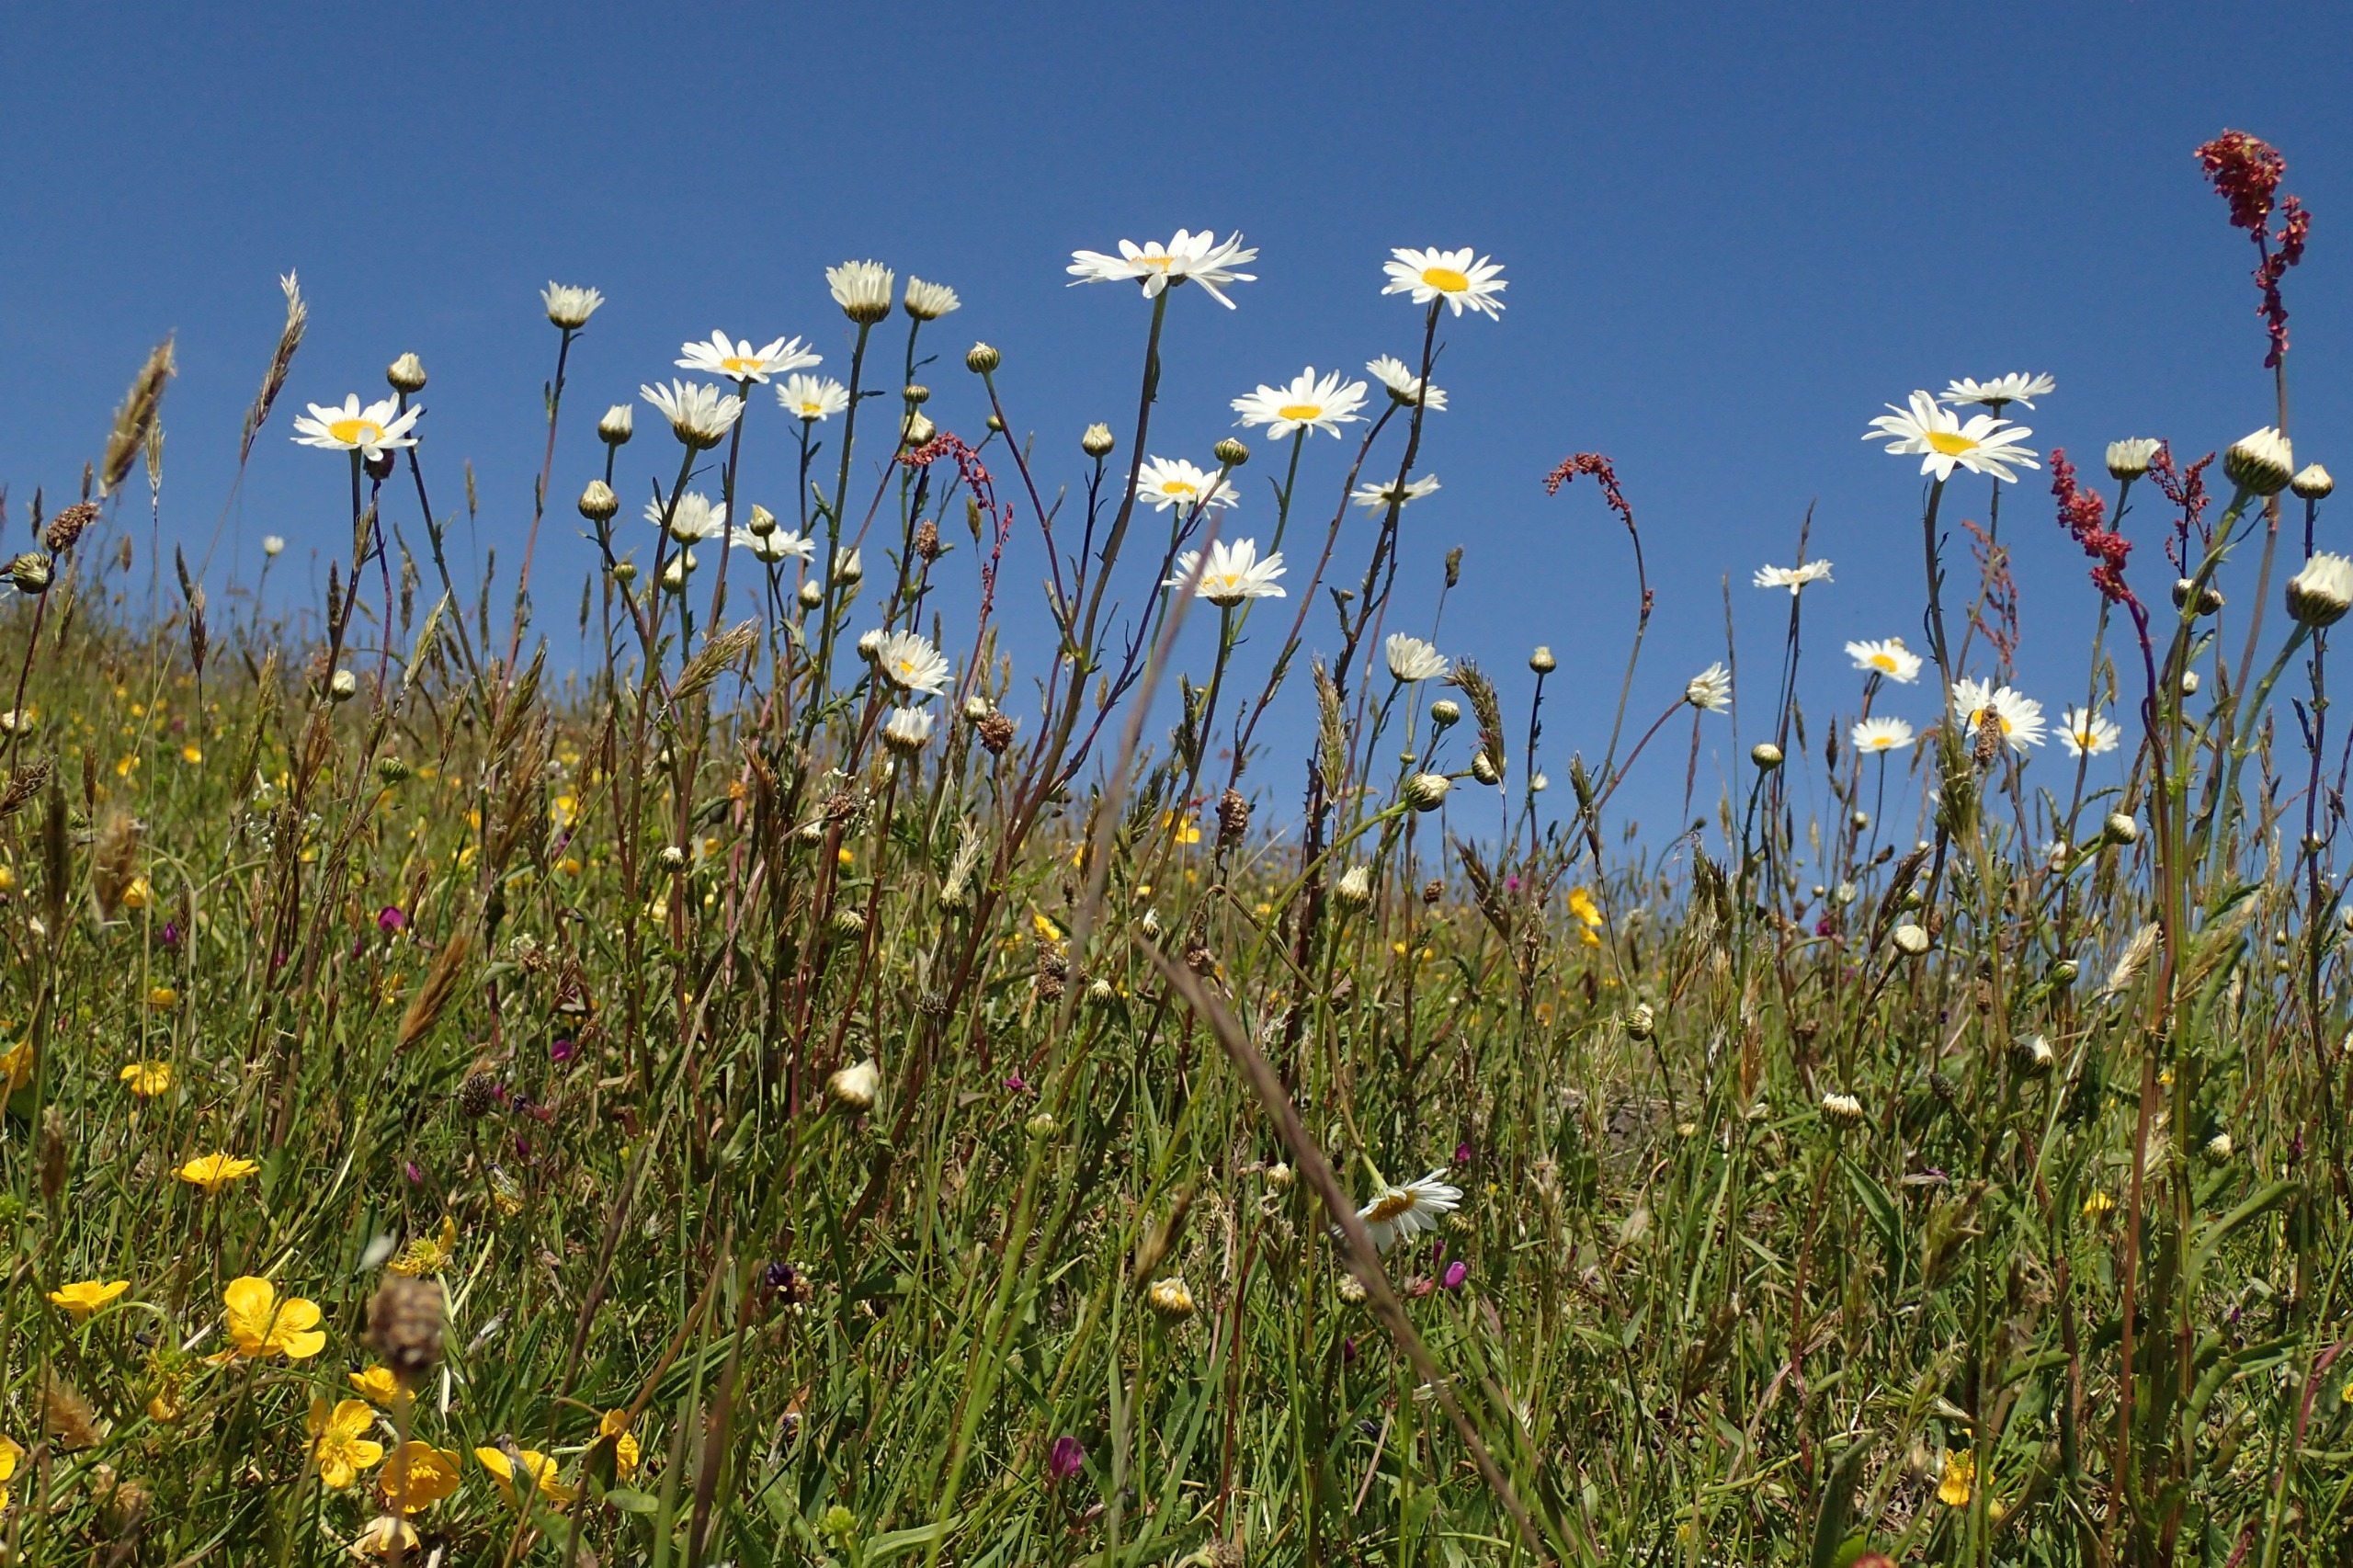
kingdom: Plantae
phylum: Tracheophyta
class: Magnoliopsida
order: Asterales
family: Asteraceae
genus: Leucanthemum
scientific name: Leucanthemum vulgare
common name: Hvid okseøje
